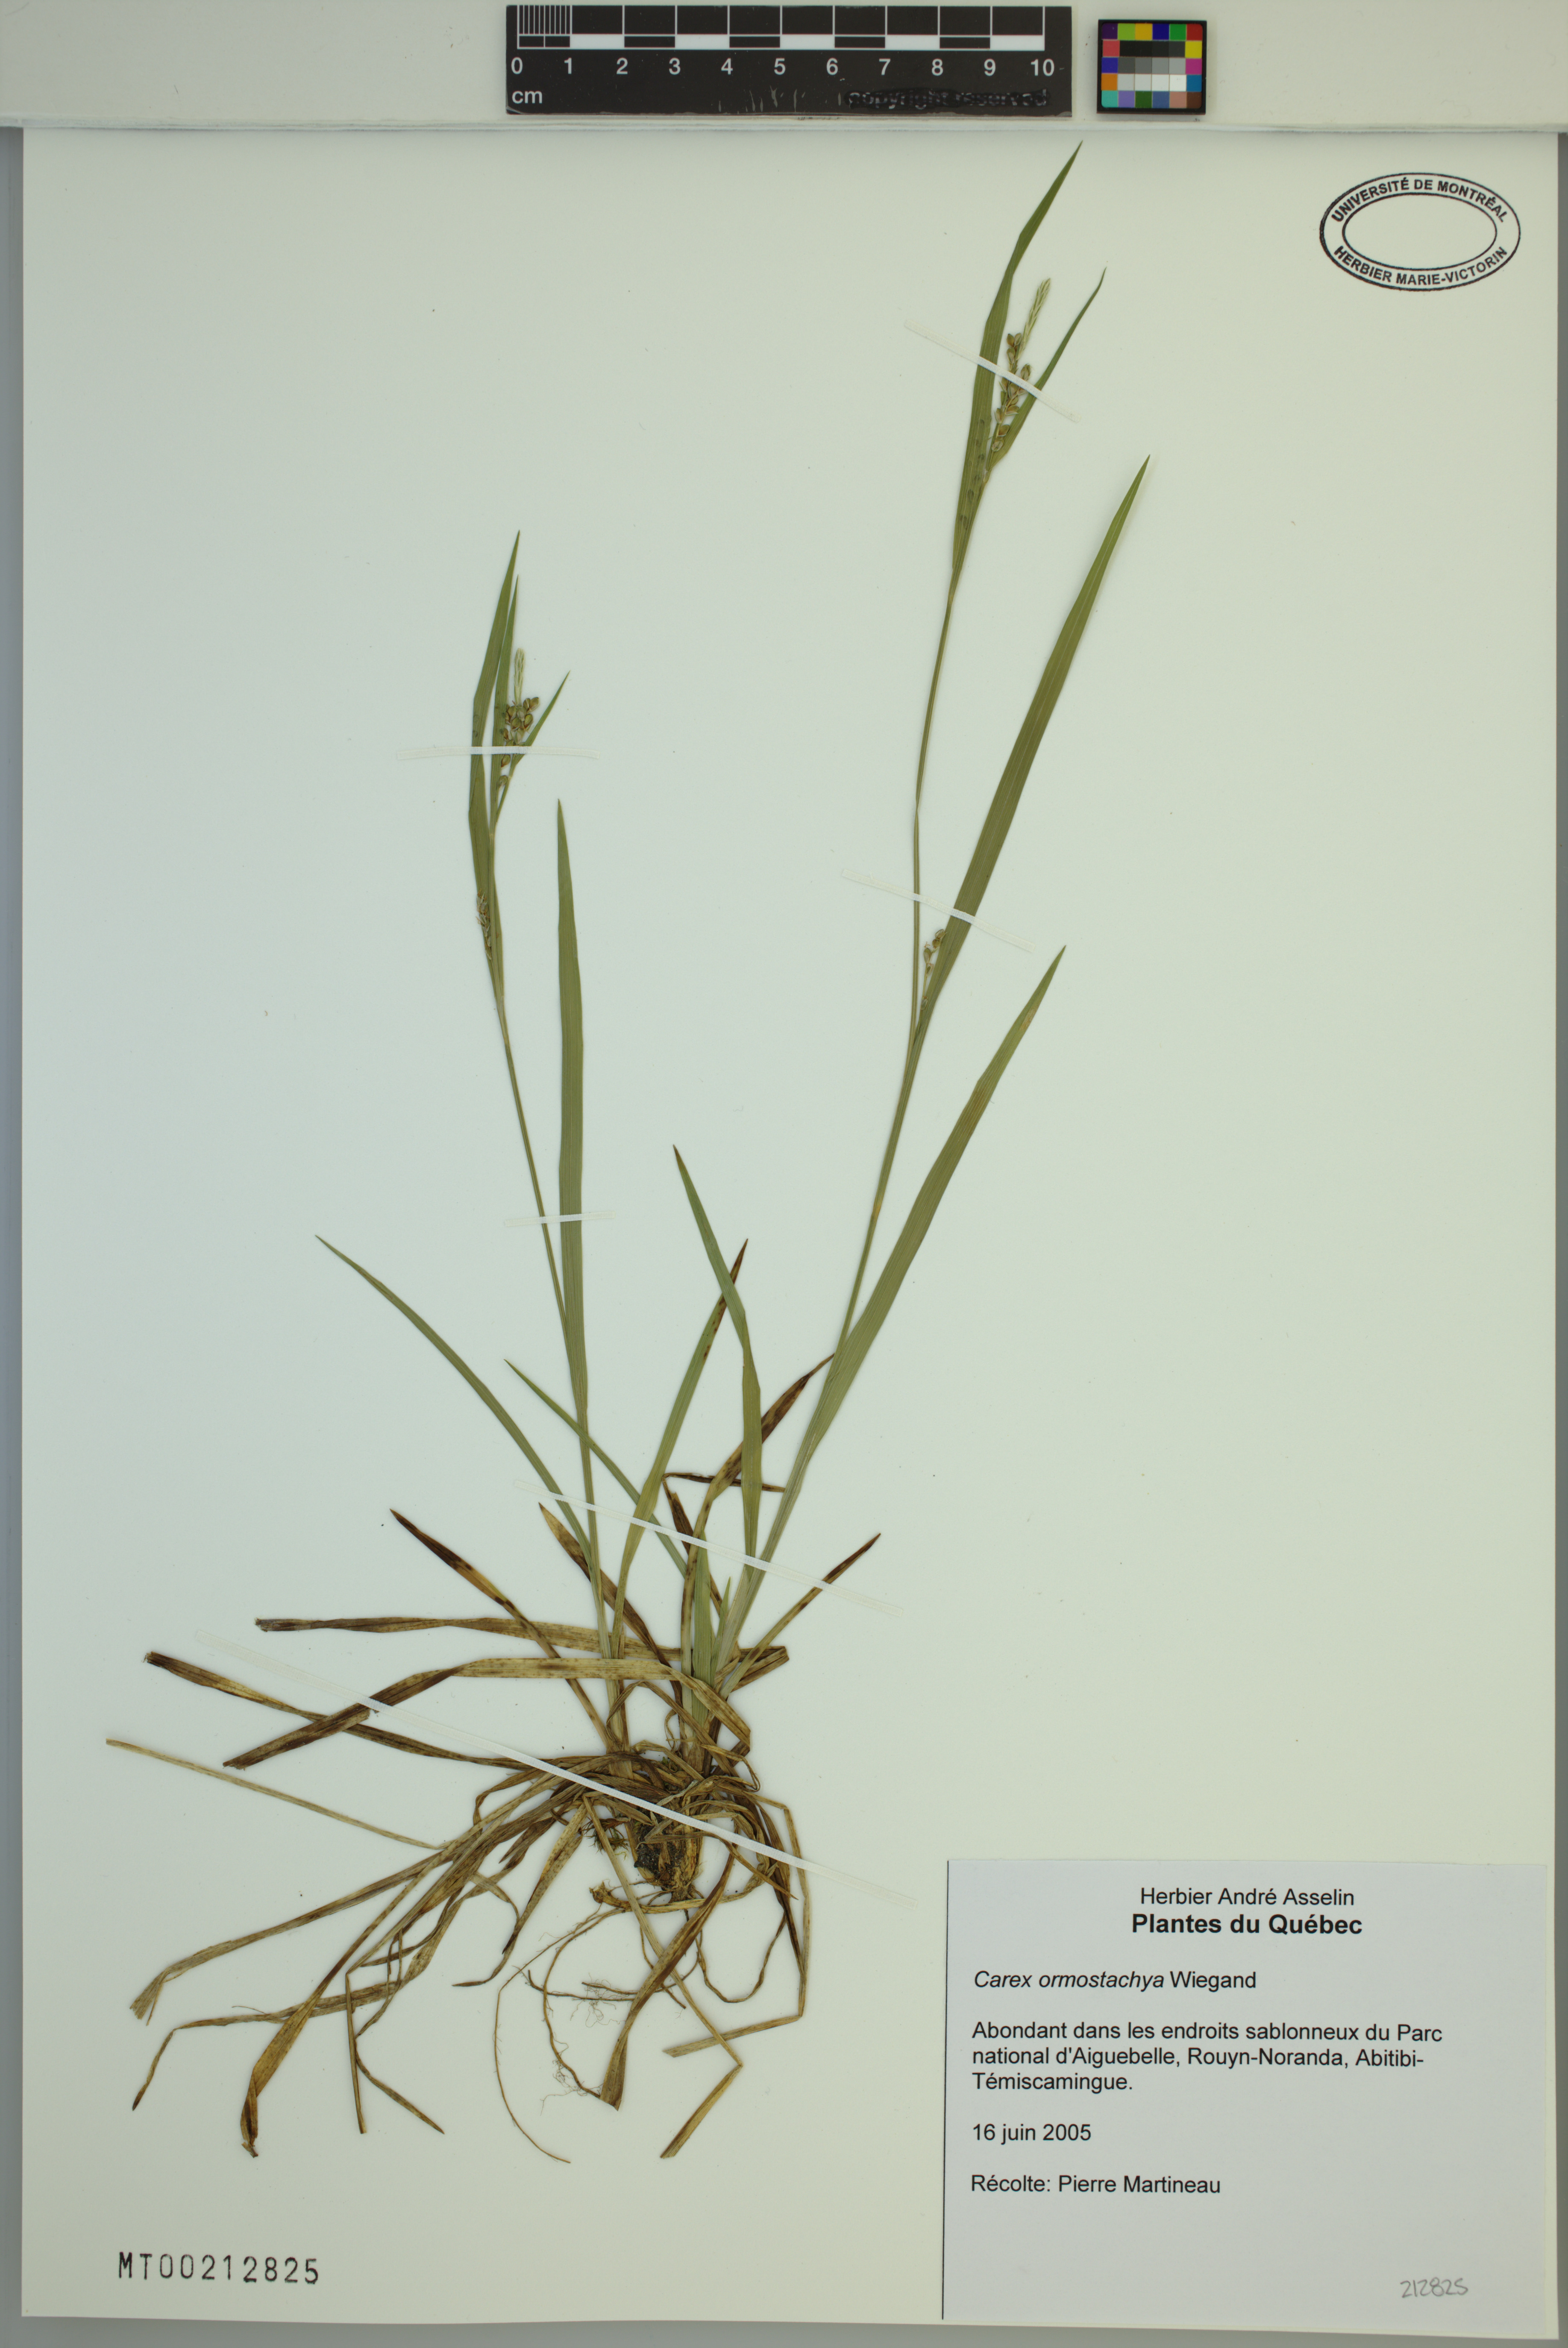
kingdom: Plantae
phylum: Tracheophyta
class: Liliopsida
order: Poales
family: Cyperaceae
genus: Carex
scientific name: Carex ormostachya
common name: Necklace spike sedge
